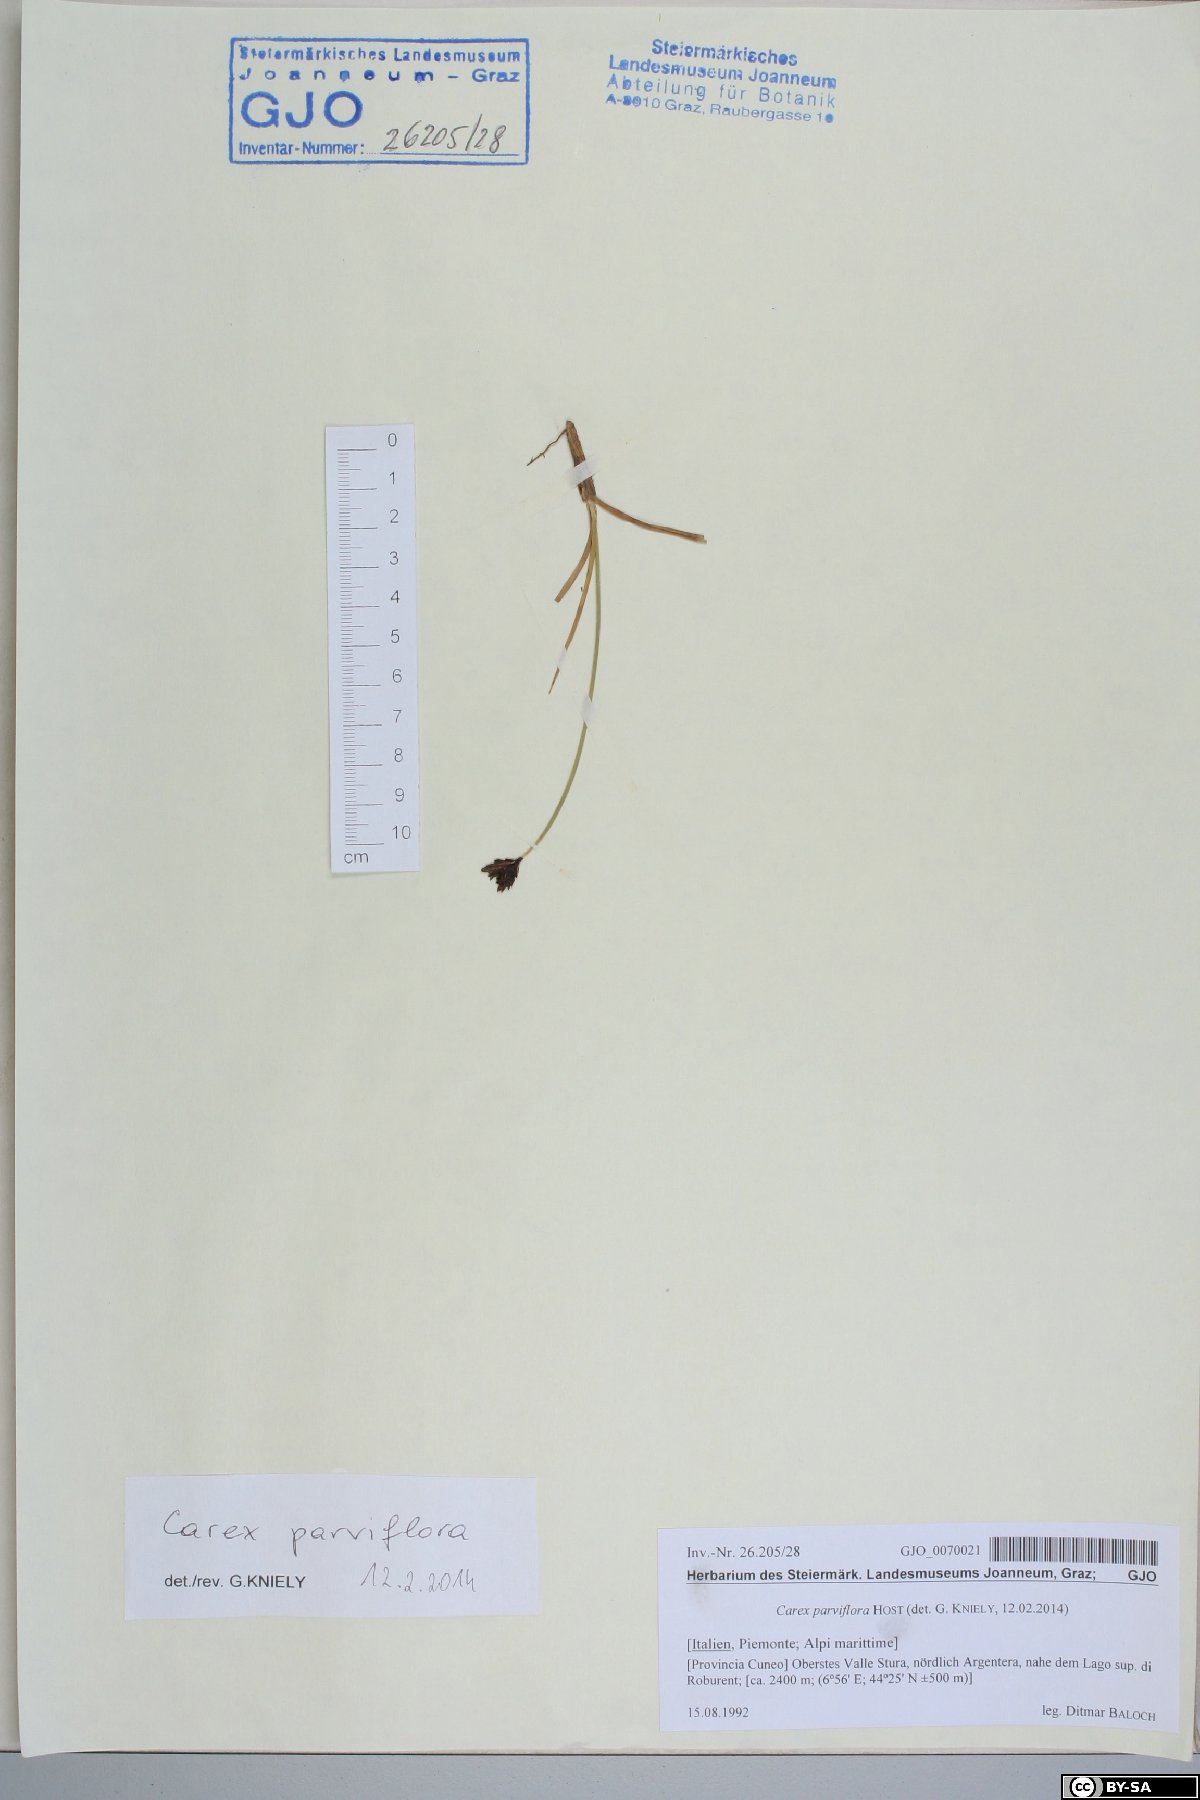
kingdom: Plantae
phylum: Tracheophyta
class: Liliopsida
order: Poales
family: Cyperaceae
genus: Carex
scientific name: Carex parviflora
